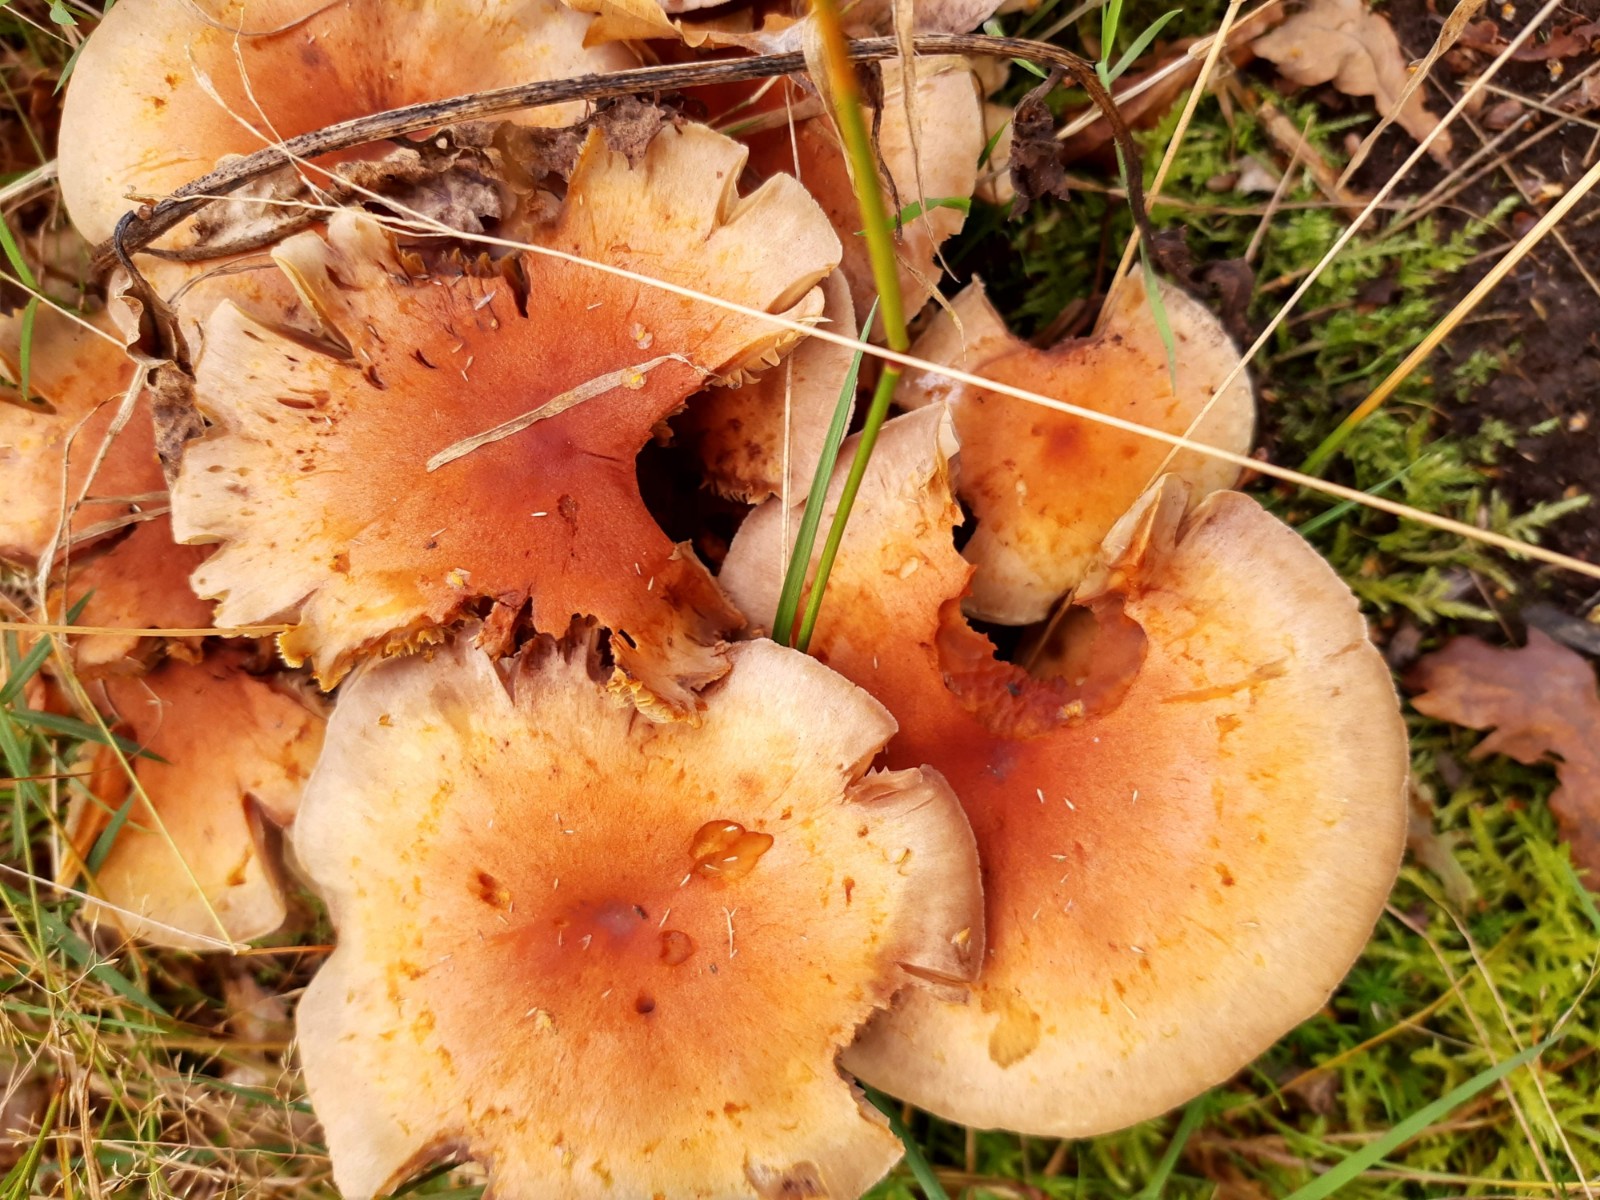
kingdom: Fungi
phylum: Basidiomycota
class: Agaricomycetes
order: Agaricales
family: Strophariaceae
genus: Hypholoma
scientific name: Hypholoma lateritium
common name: teglrød svovlhat
